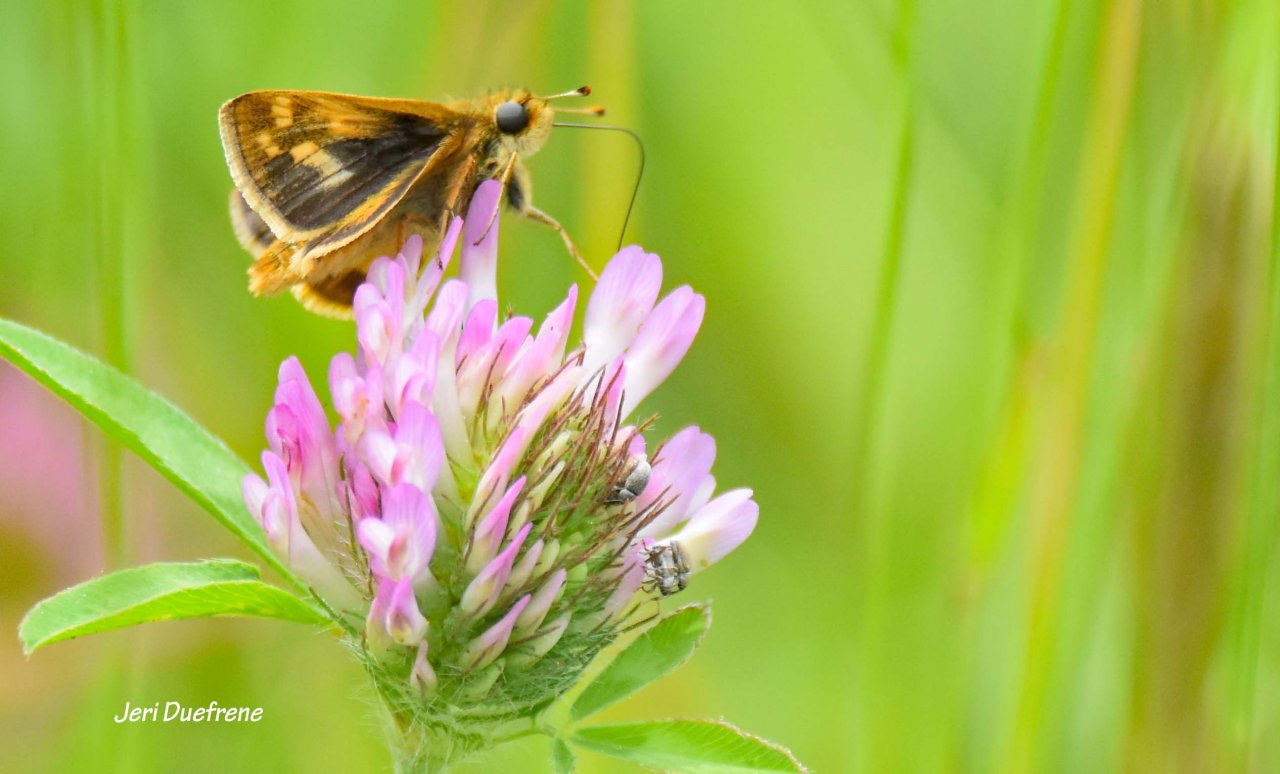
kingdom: Animalia
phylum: Arthropoda
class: Insecta
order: Lepidoptera
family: Hesperiidae
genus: Polites
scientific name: Polites
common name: Long Dash Skipper
